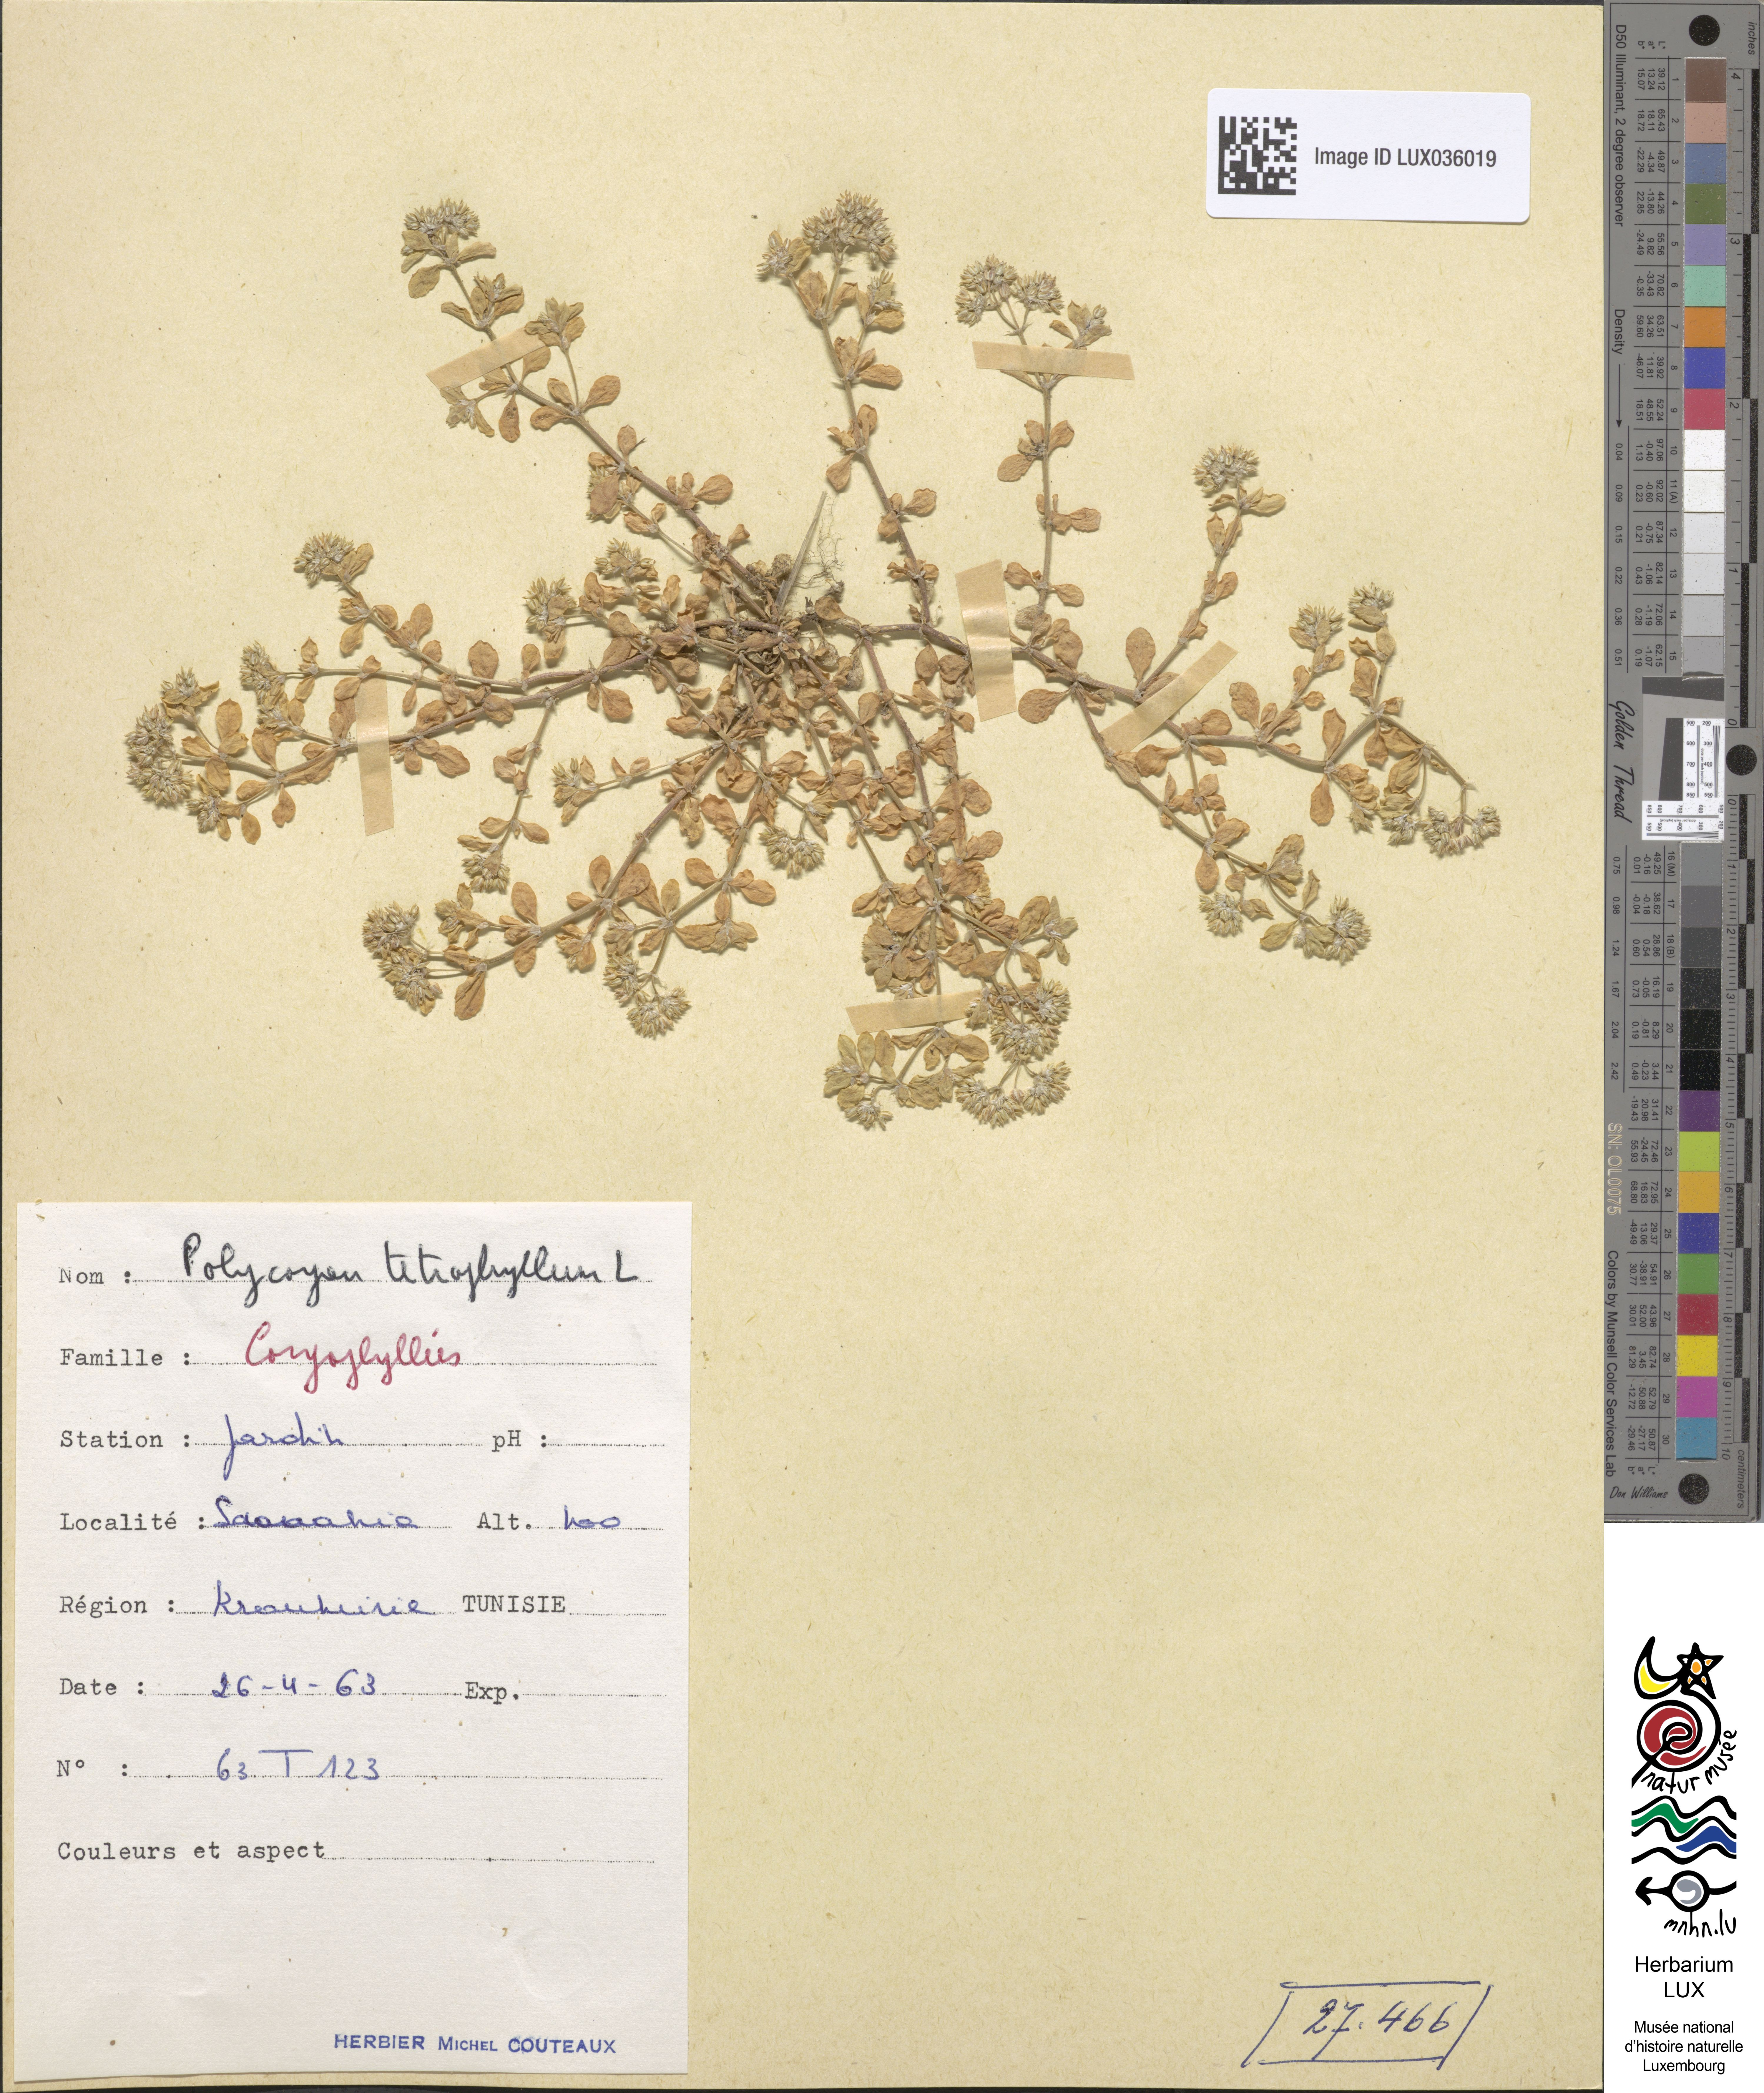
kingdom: Plantae
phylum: Tracheophyta
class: Magnoliopsida
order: Caryophyllales
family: Caryophyllaceae
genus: Polycarpon
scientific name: Polycarpon tetraphyllum
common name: Four-leaved all-seed
